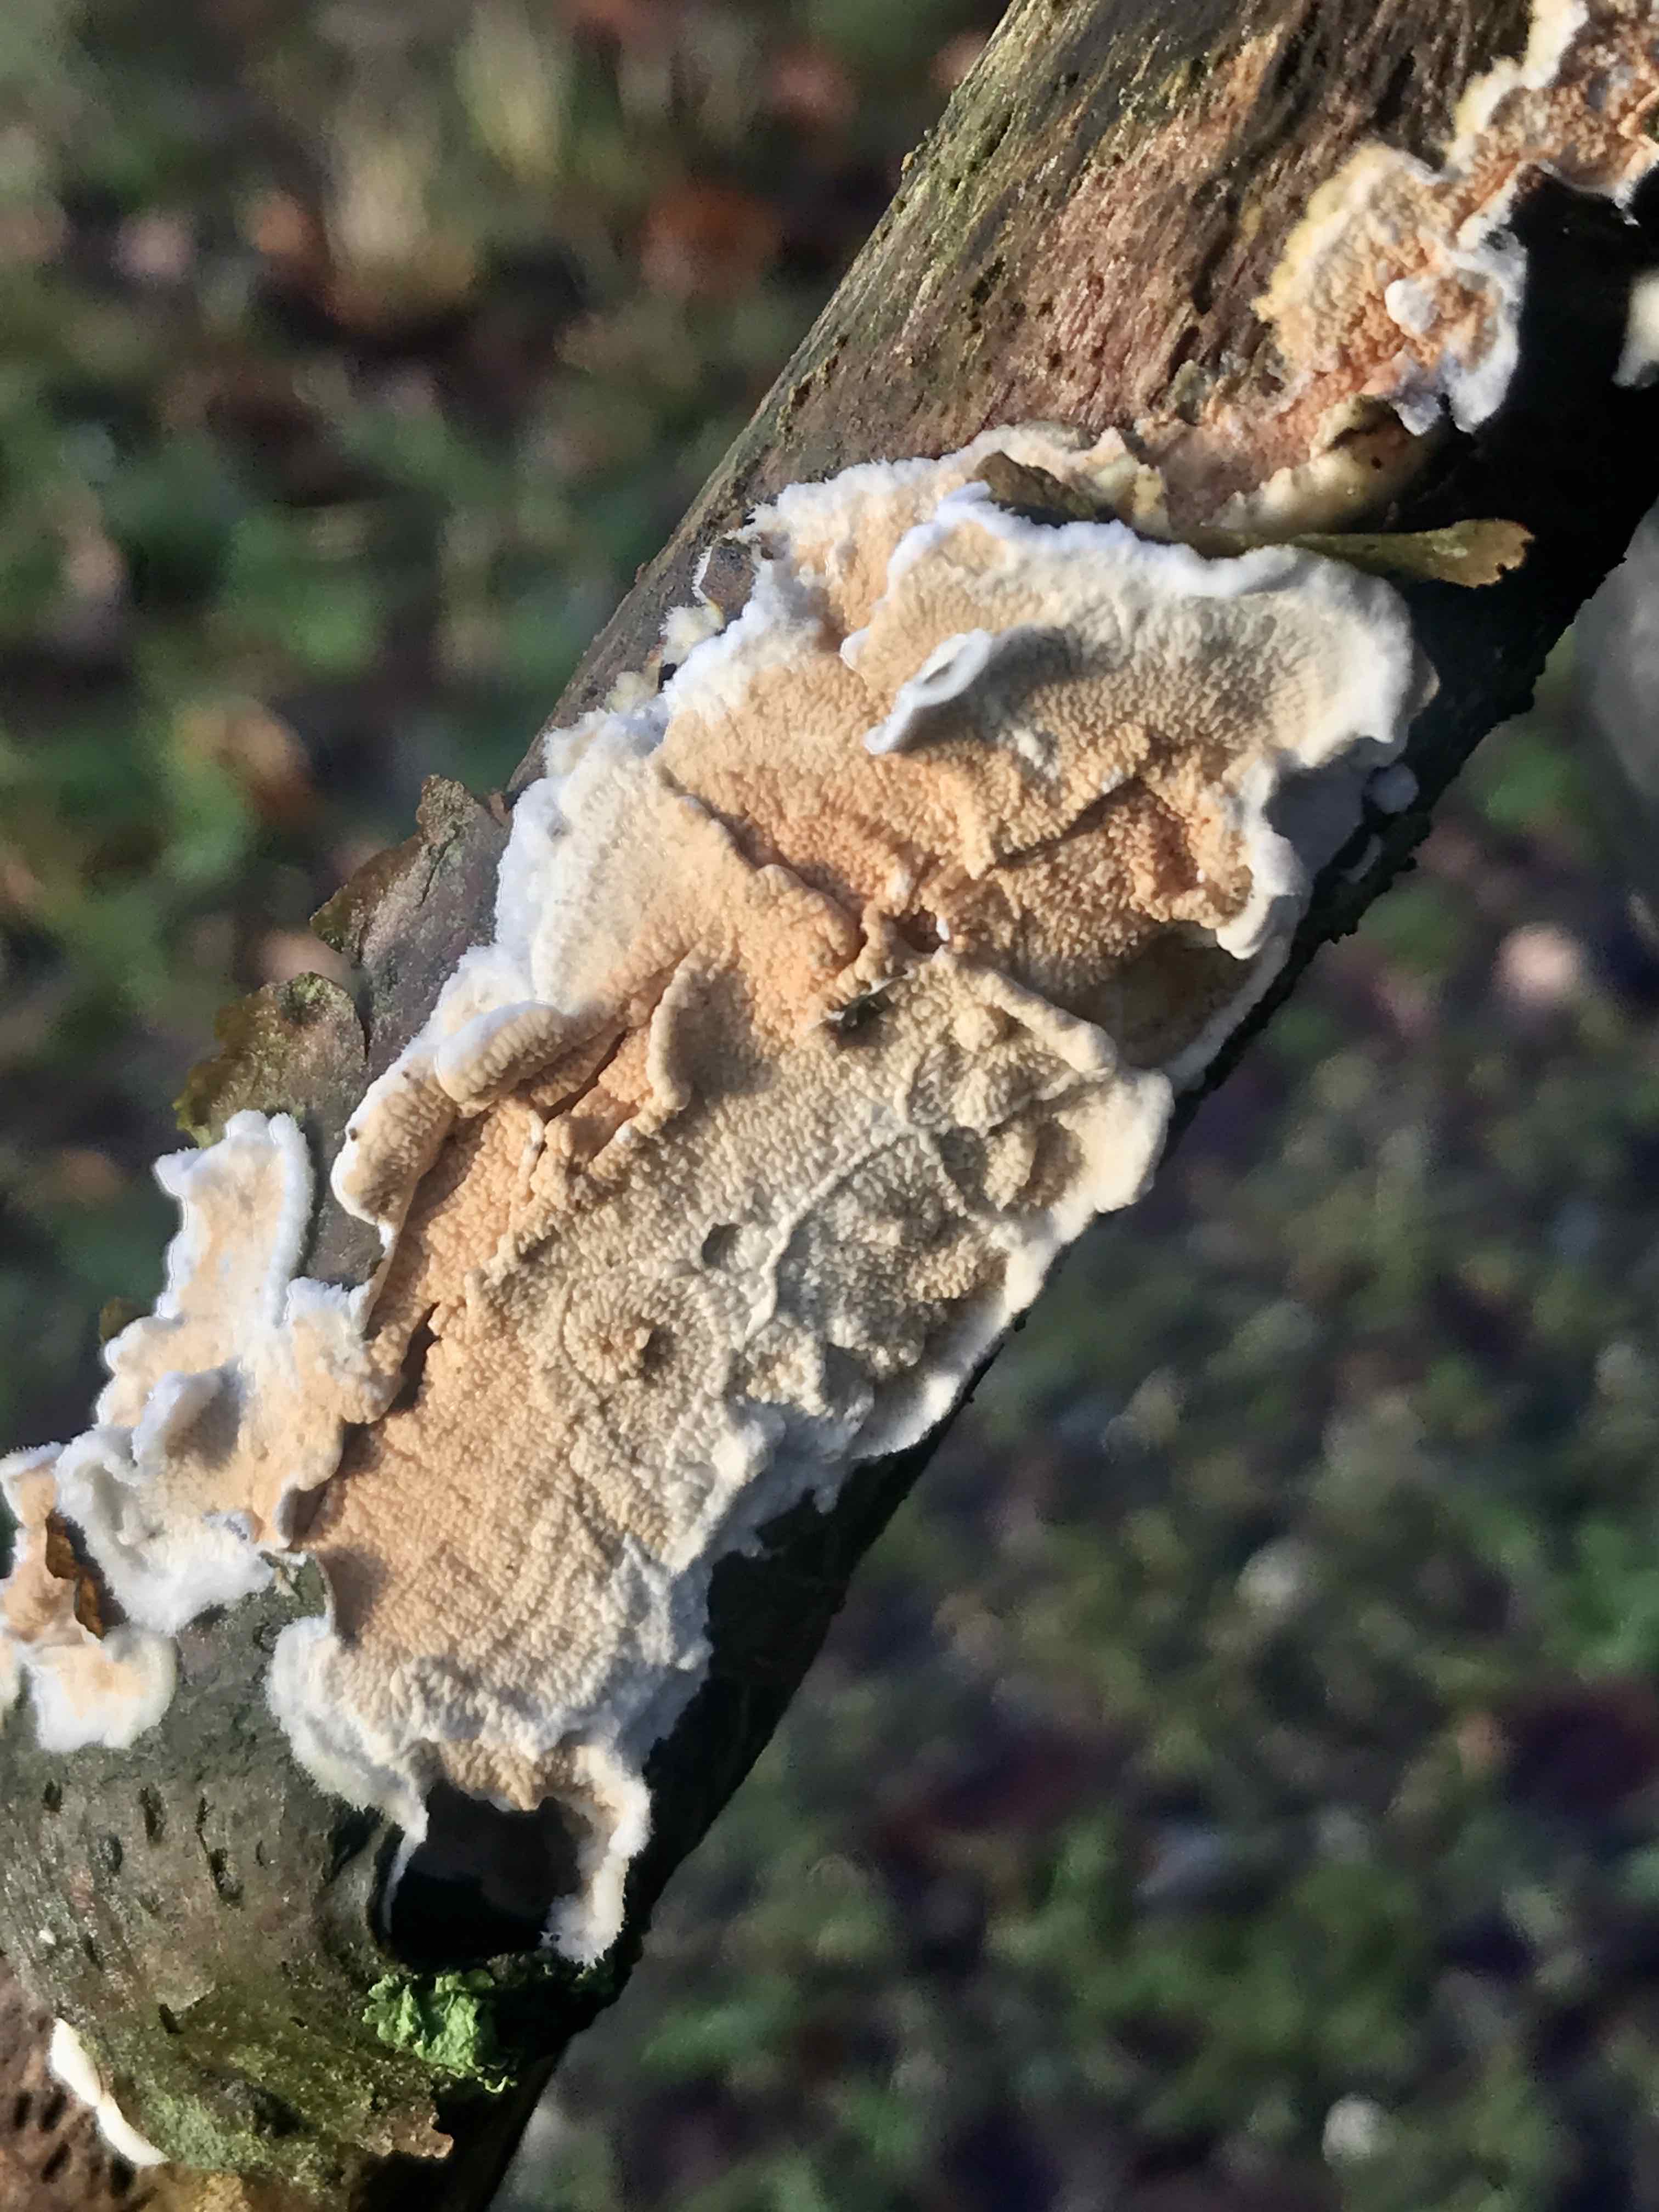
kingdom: Fungi
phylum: Basidiomycota
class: Agaricomycetes
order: Polyporales
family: Irpicaceae
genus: Byssomerulius
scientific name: Byssomerulius corium
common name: læder-åresvamp
